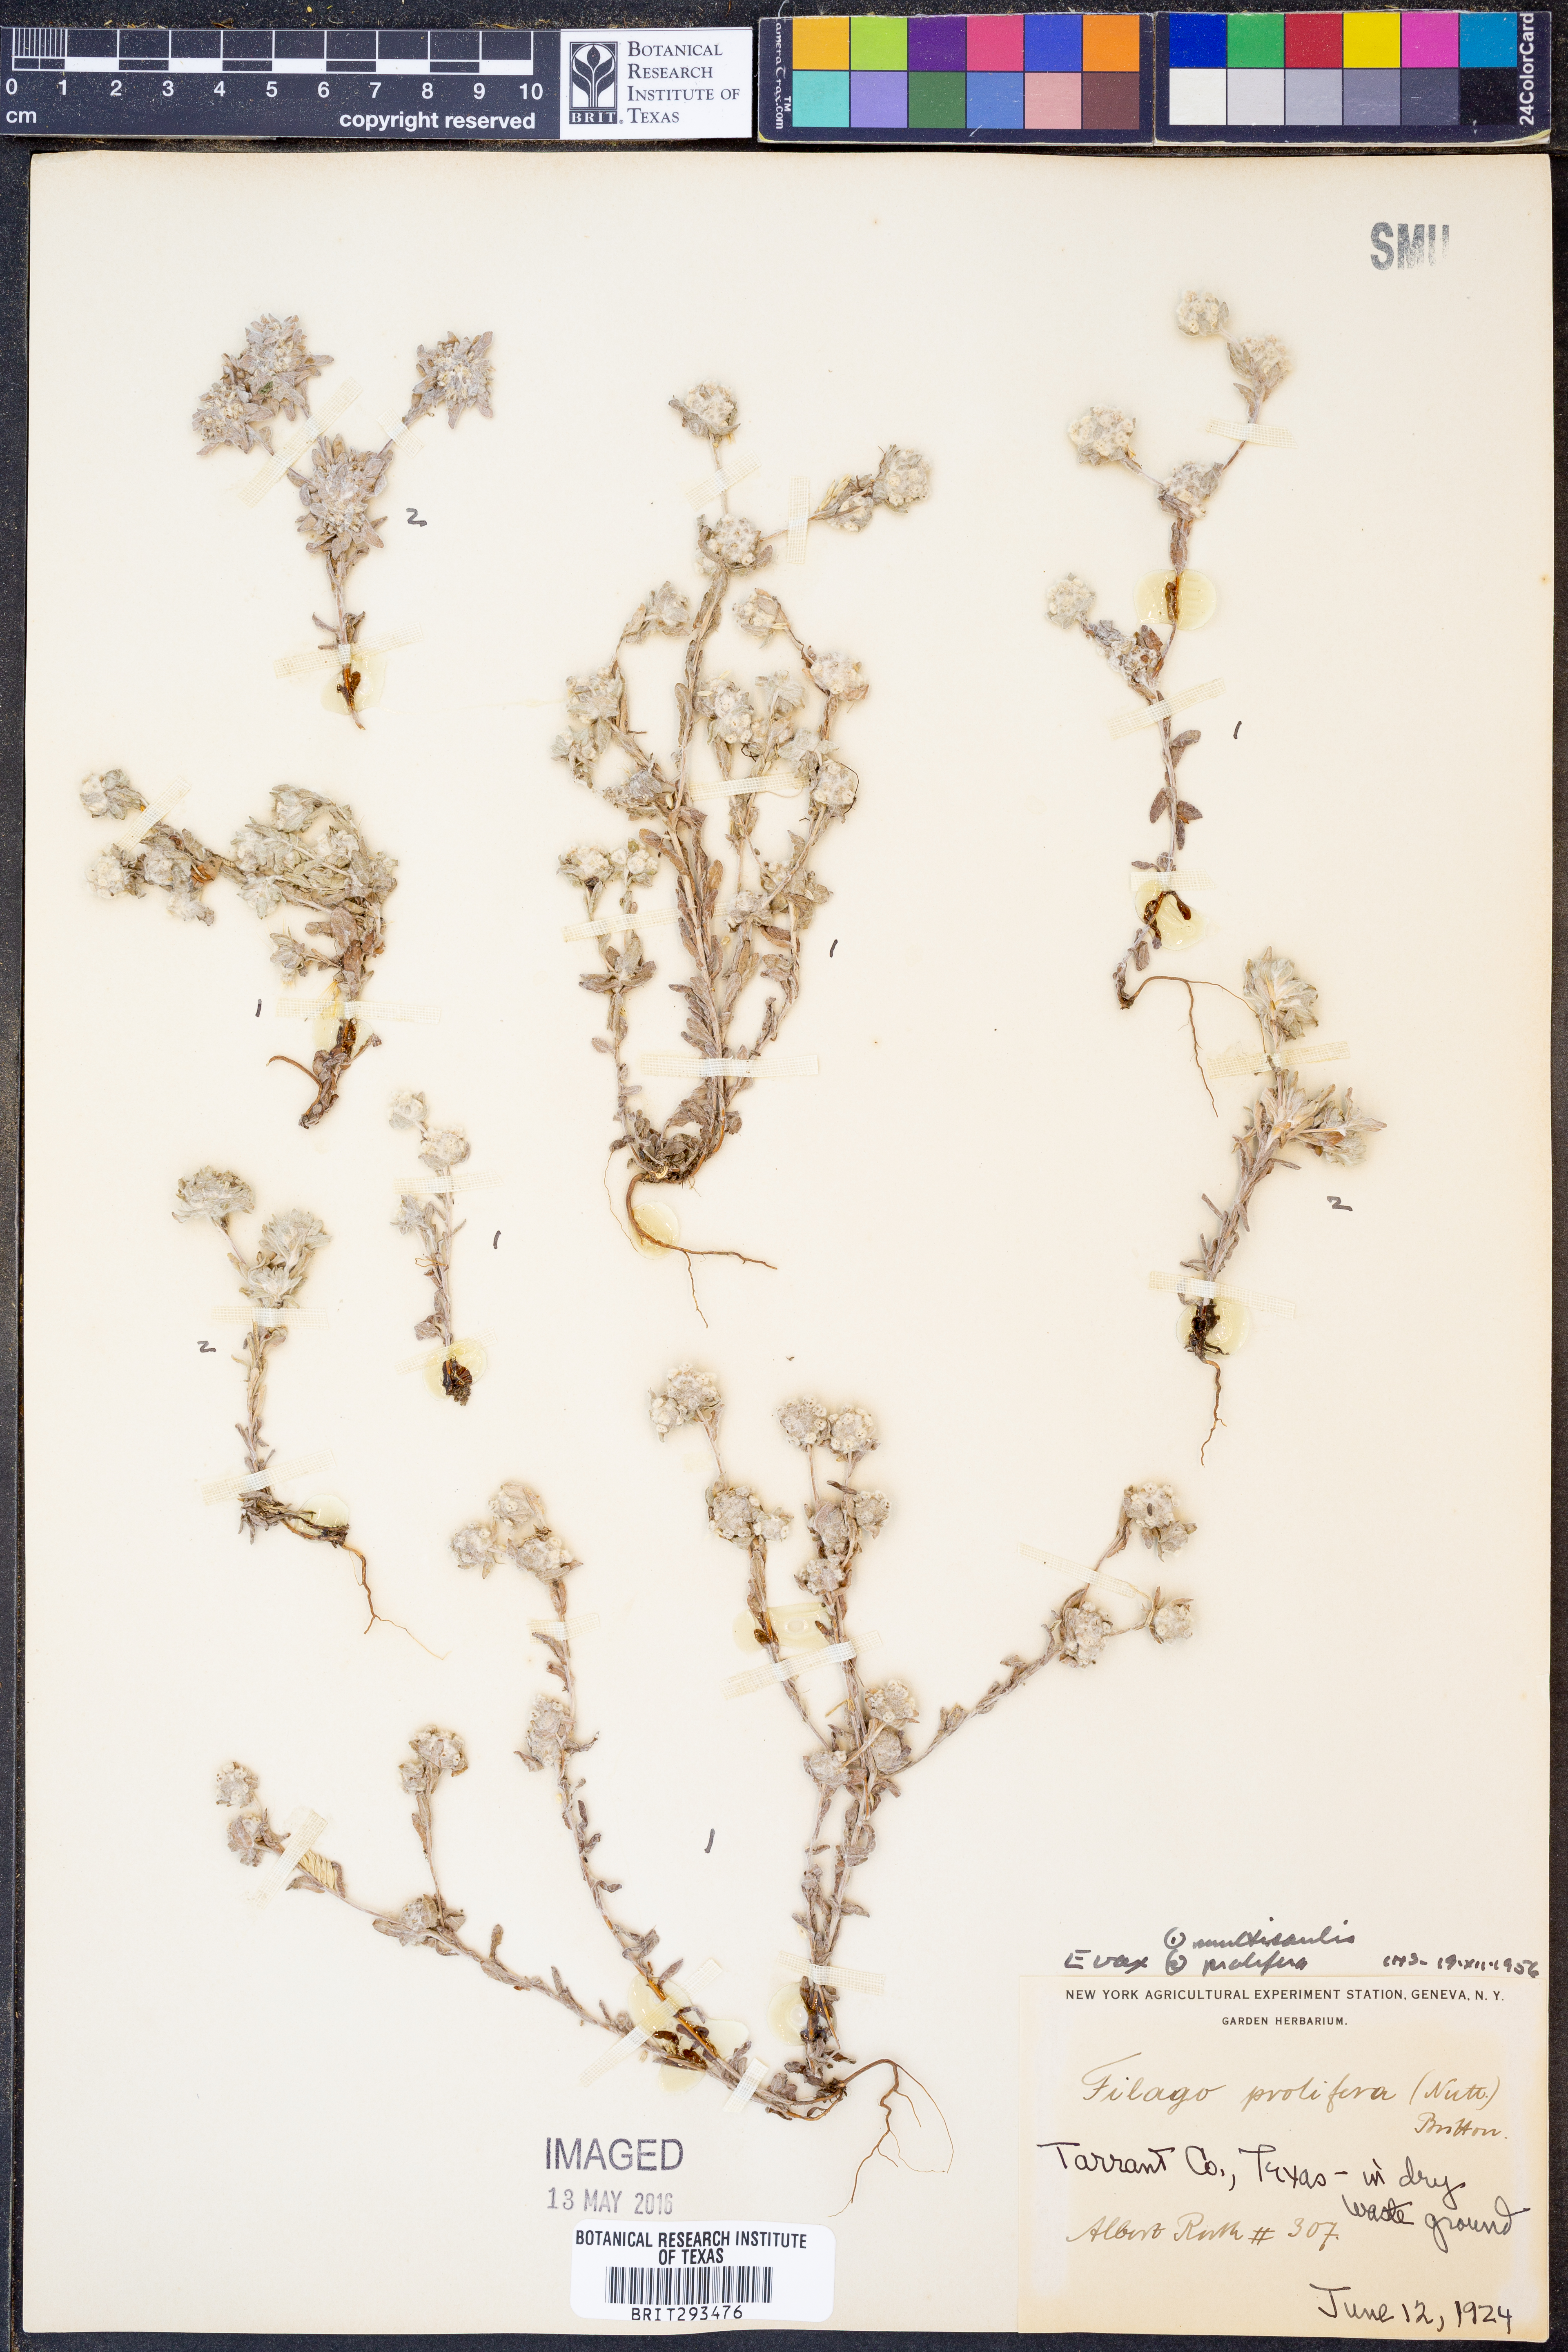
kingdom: Plantae
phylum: Tracheophyta
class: Magnoliopsida
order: Asterales
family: Asteraceae
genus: Diaperia
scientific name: Diaperia verna
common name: Many-stem rabbit-tobacco
